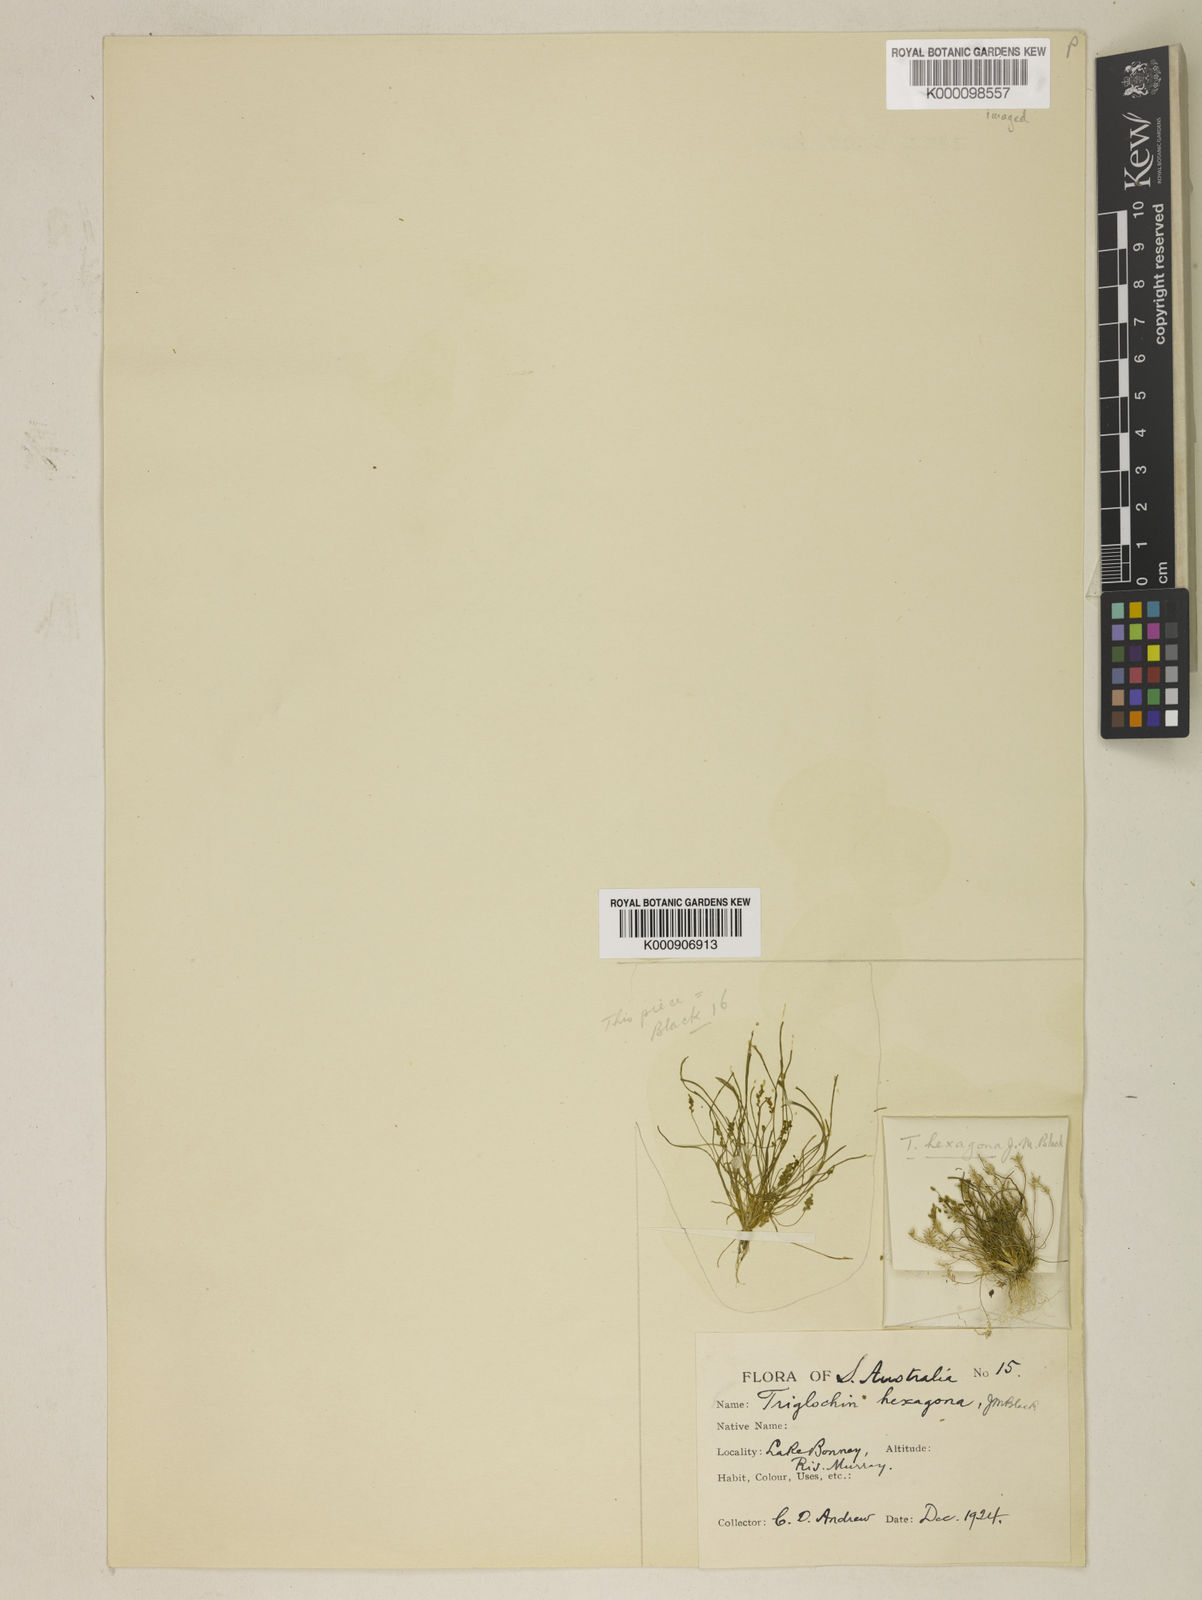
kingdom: Plantae
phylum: Tracheophyta
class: Liliopsida
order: Alismatales
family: Juncaginaceae
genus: Triglochin
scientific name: Triglochin hexagona
